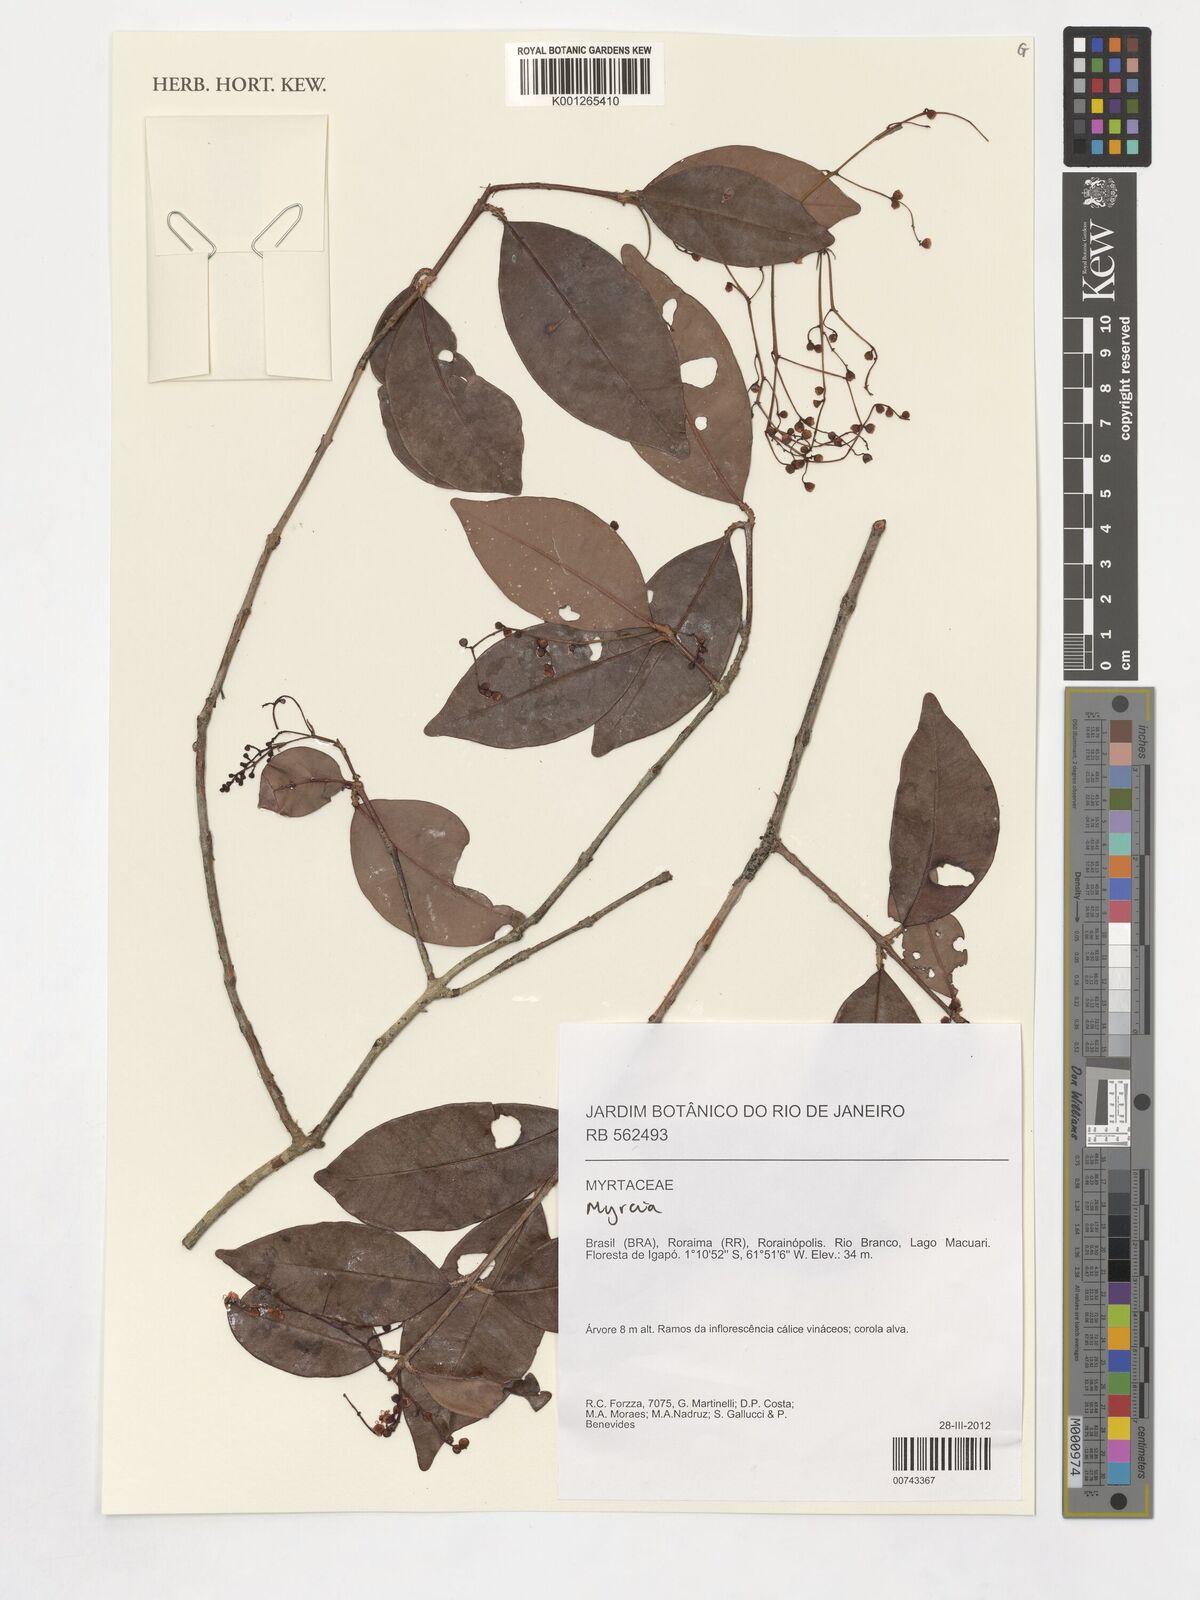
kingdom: Plantae
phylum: Tracheophyta
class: Magnoliopsida
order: Myrtales
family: Myrtaceae
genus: Myrcia
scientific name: Myrcia umbraticola
